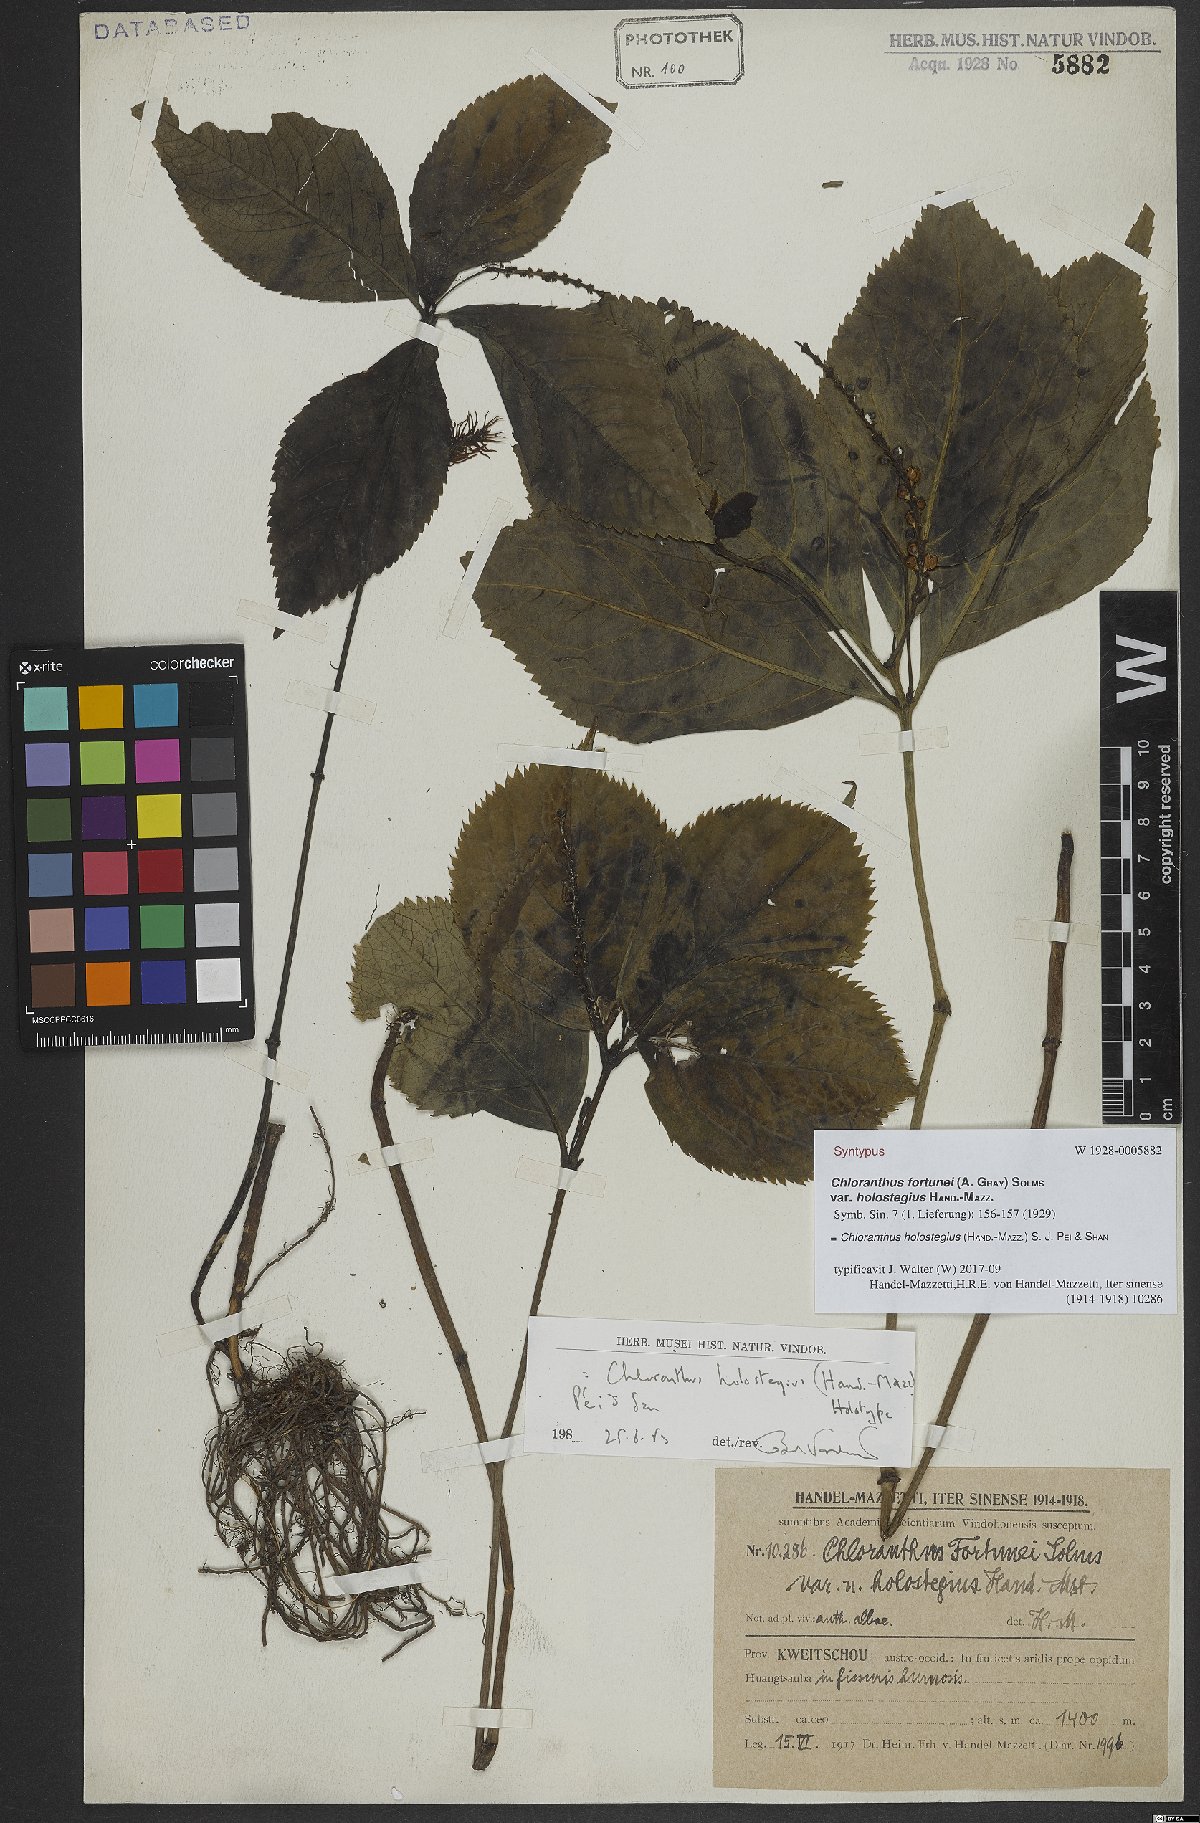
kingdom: Plantae
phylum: Tracheophyta
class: Magnoliopsida
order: Chloranthales
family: Chloranthaceae
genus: Chloranthus
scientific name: Chloranthus holostegius
